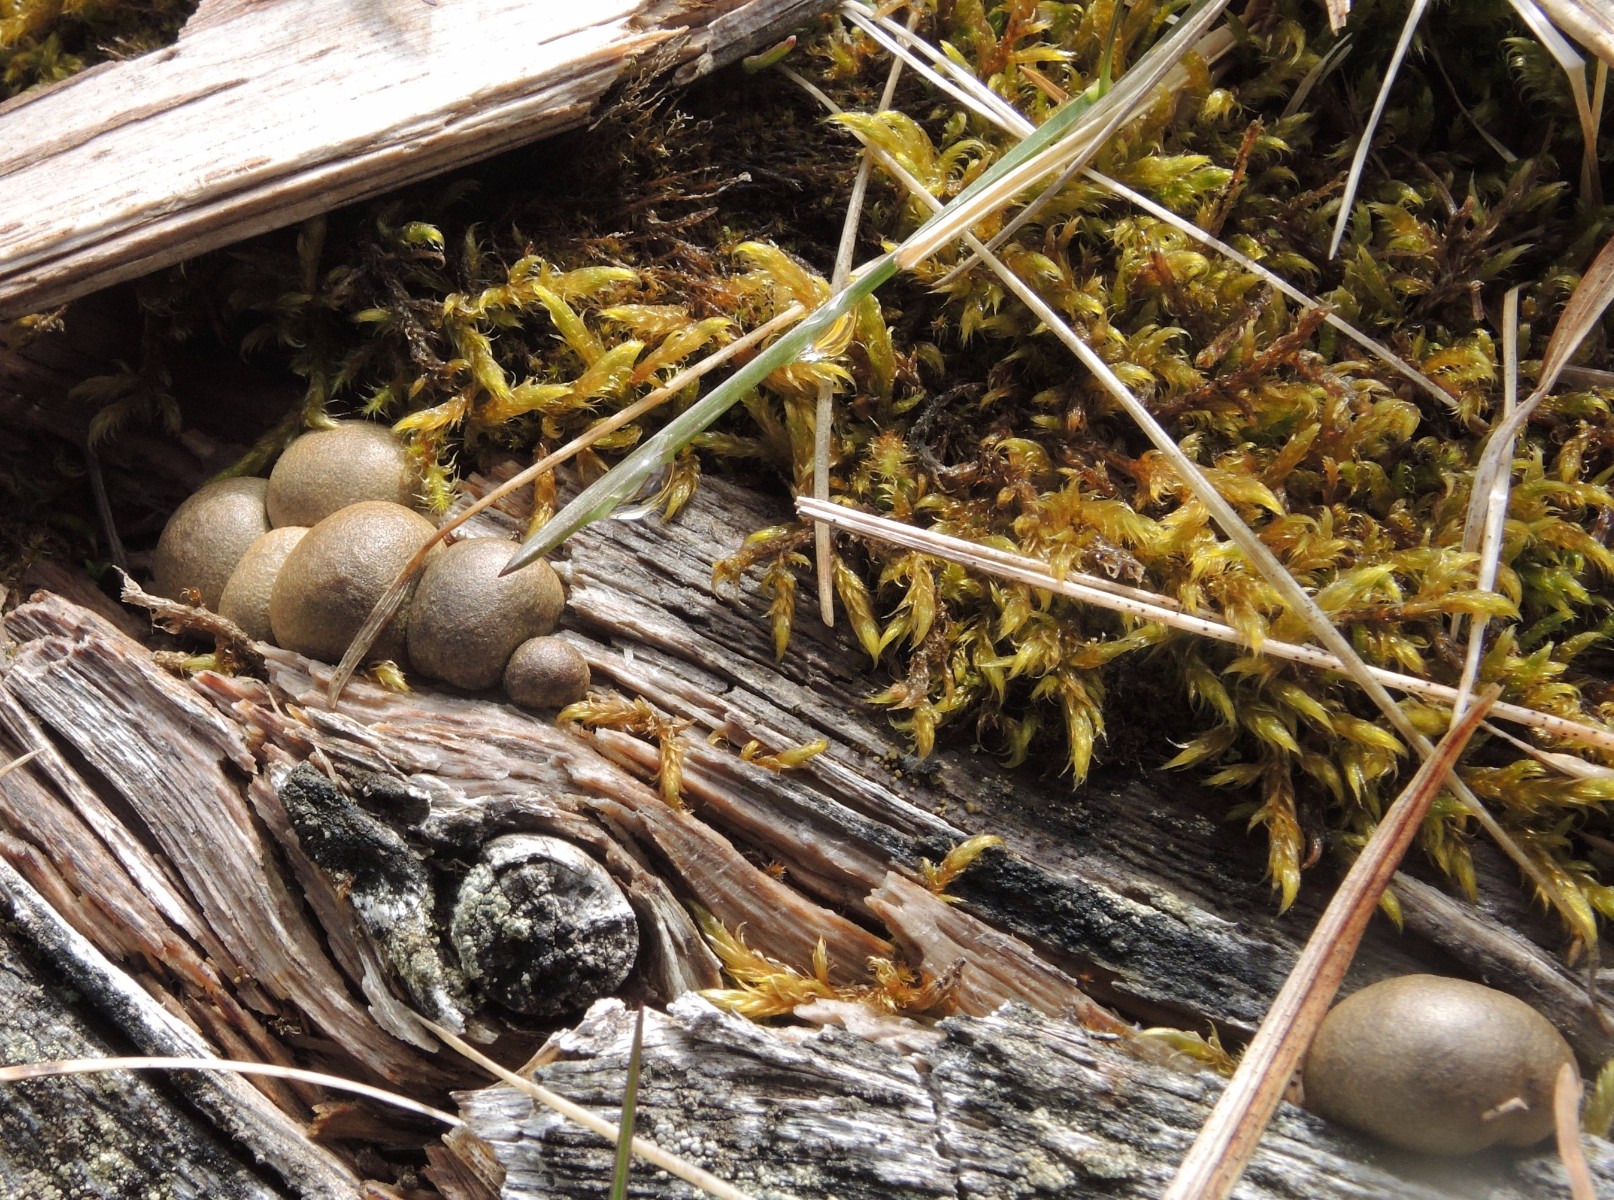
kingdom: Protozoa
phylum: Mycetozoa
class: Myxomycetes
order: Cribrariales
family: Tubiferaceae
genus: Lycogala
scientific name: Lycogala epidendrum
